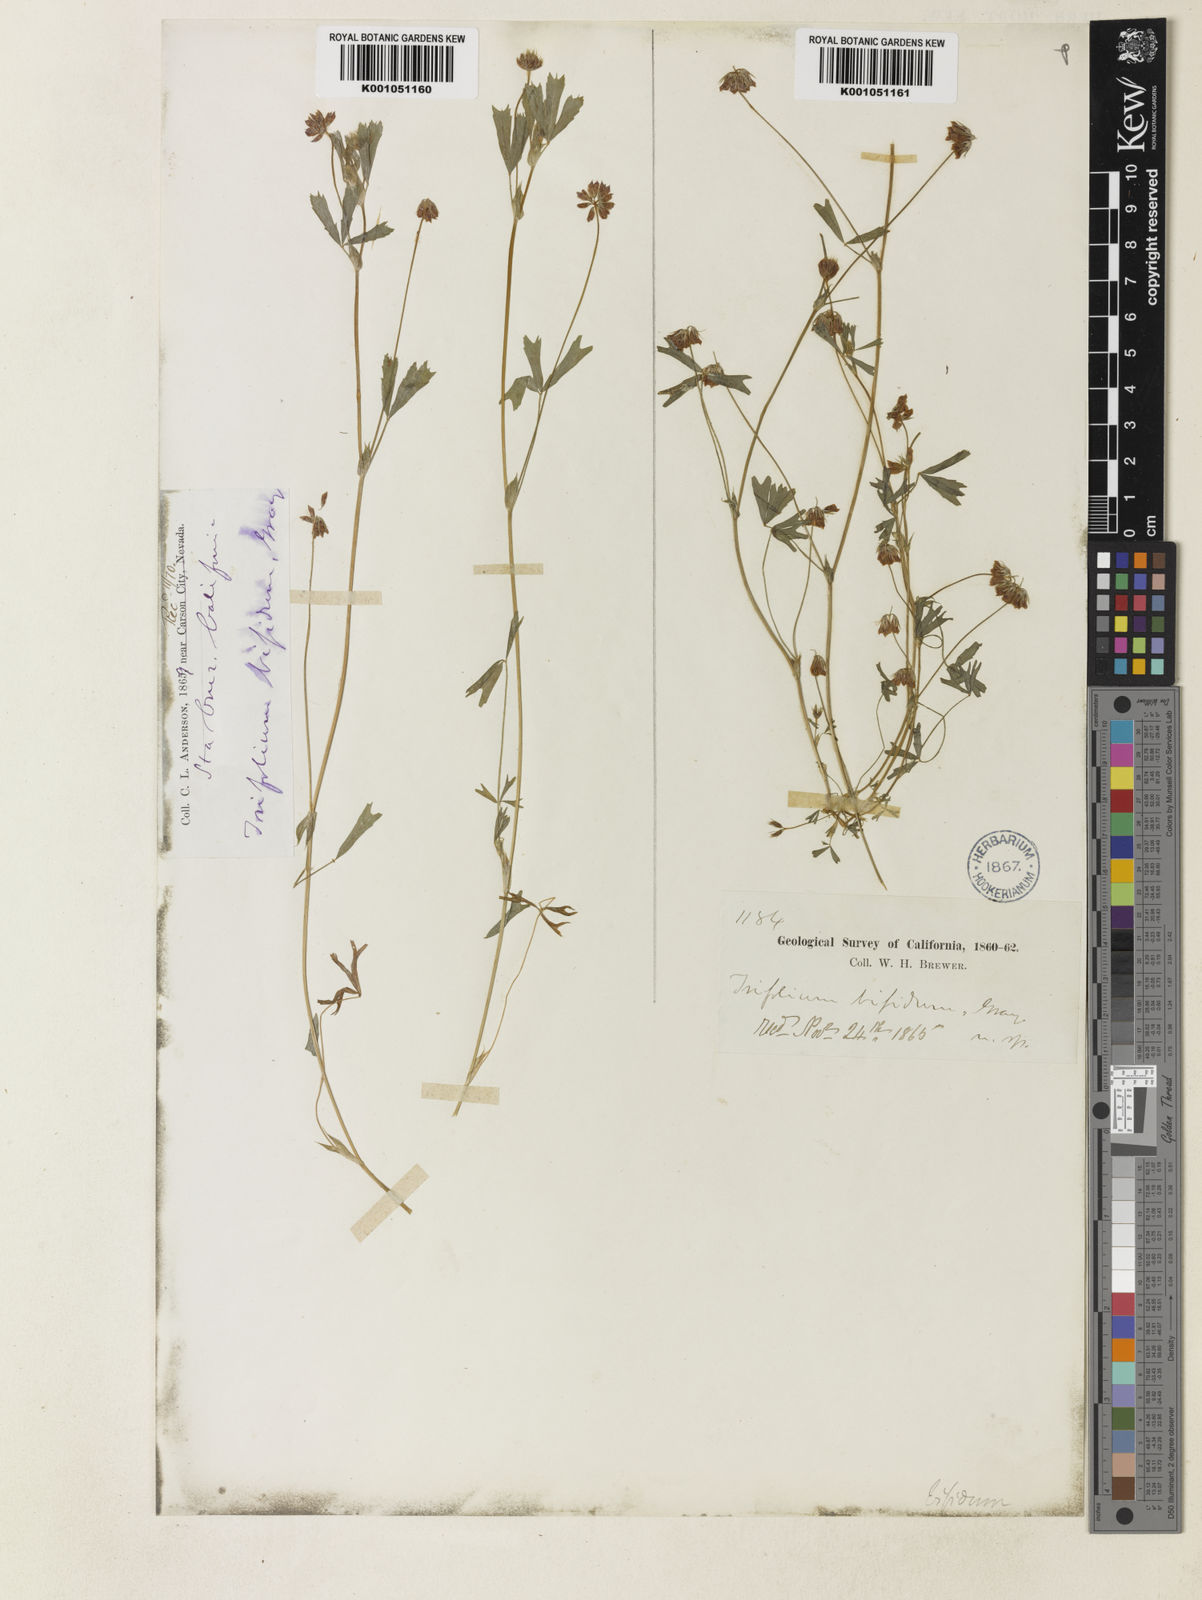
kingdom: Plantae
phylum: Tracheophyta
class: Magnoliopsida
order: Fabales
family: Fabaceae
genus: Trifolium
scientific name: Trifolium bifidum
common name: Notch-leaf clover
